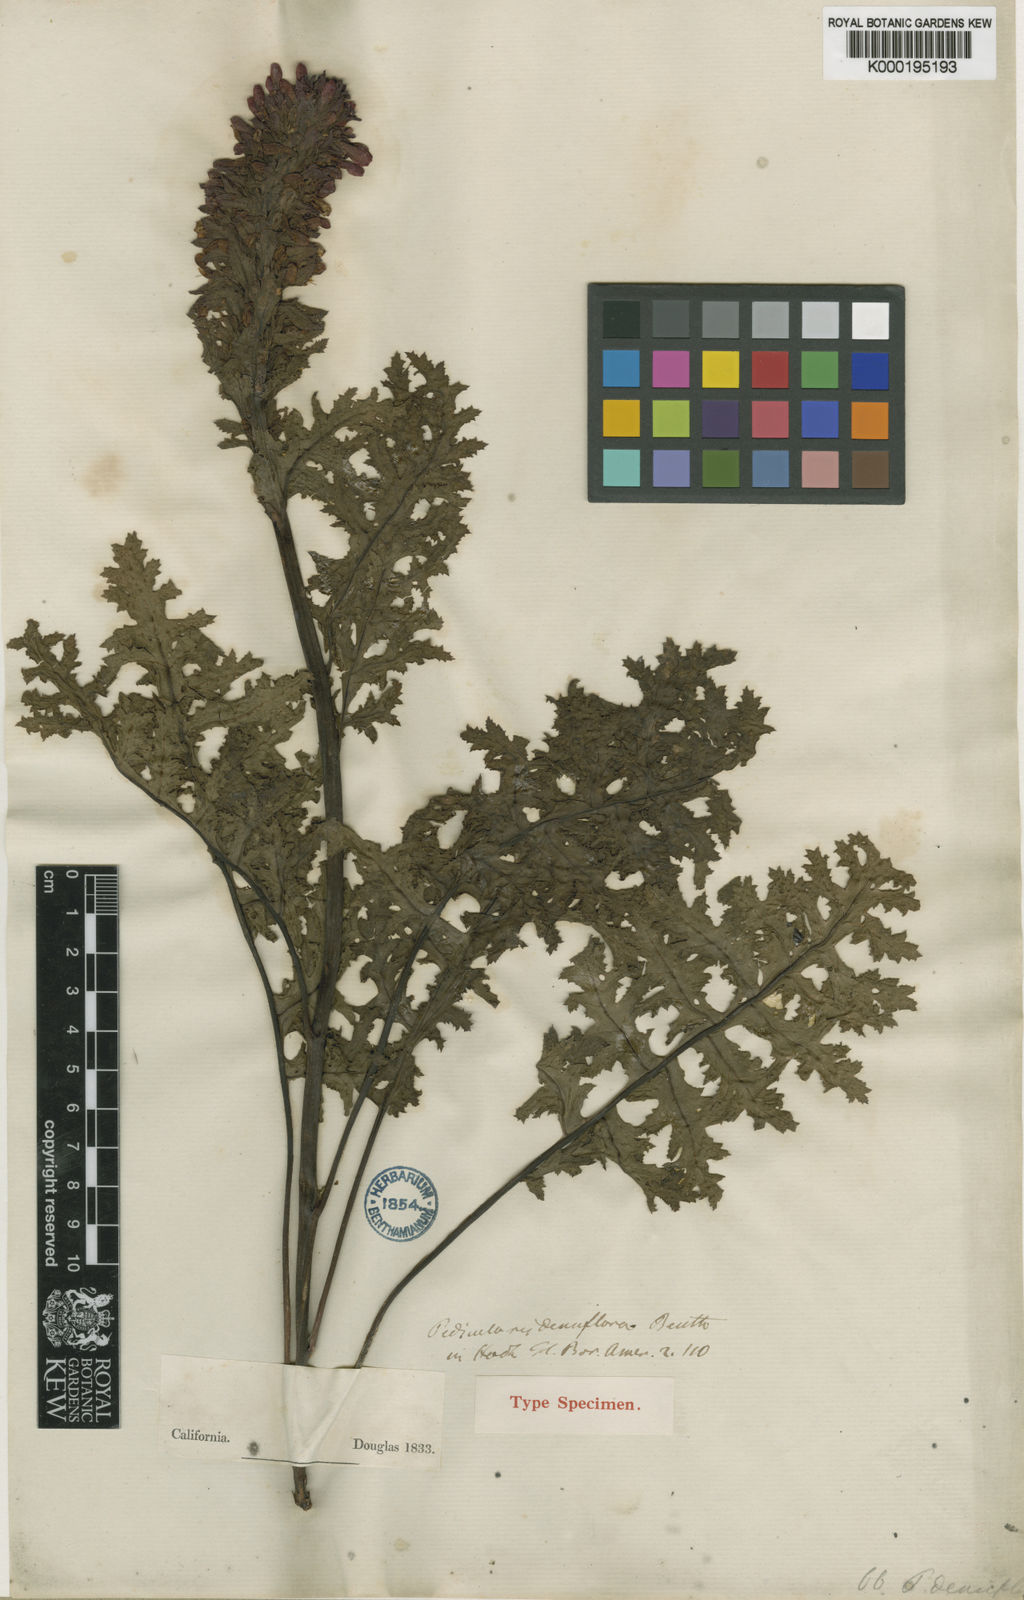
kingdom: Plantae
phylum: Tracheophyta
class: Magnoliopsida
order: Lamiales
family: Orobanchaceae
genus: Pedicularis
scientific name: Pedicularis densiflora
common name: Indian warrior
